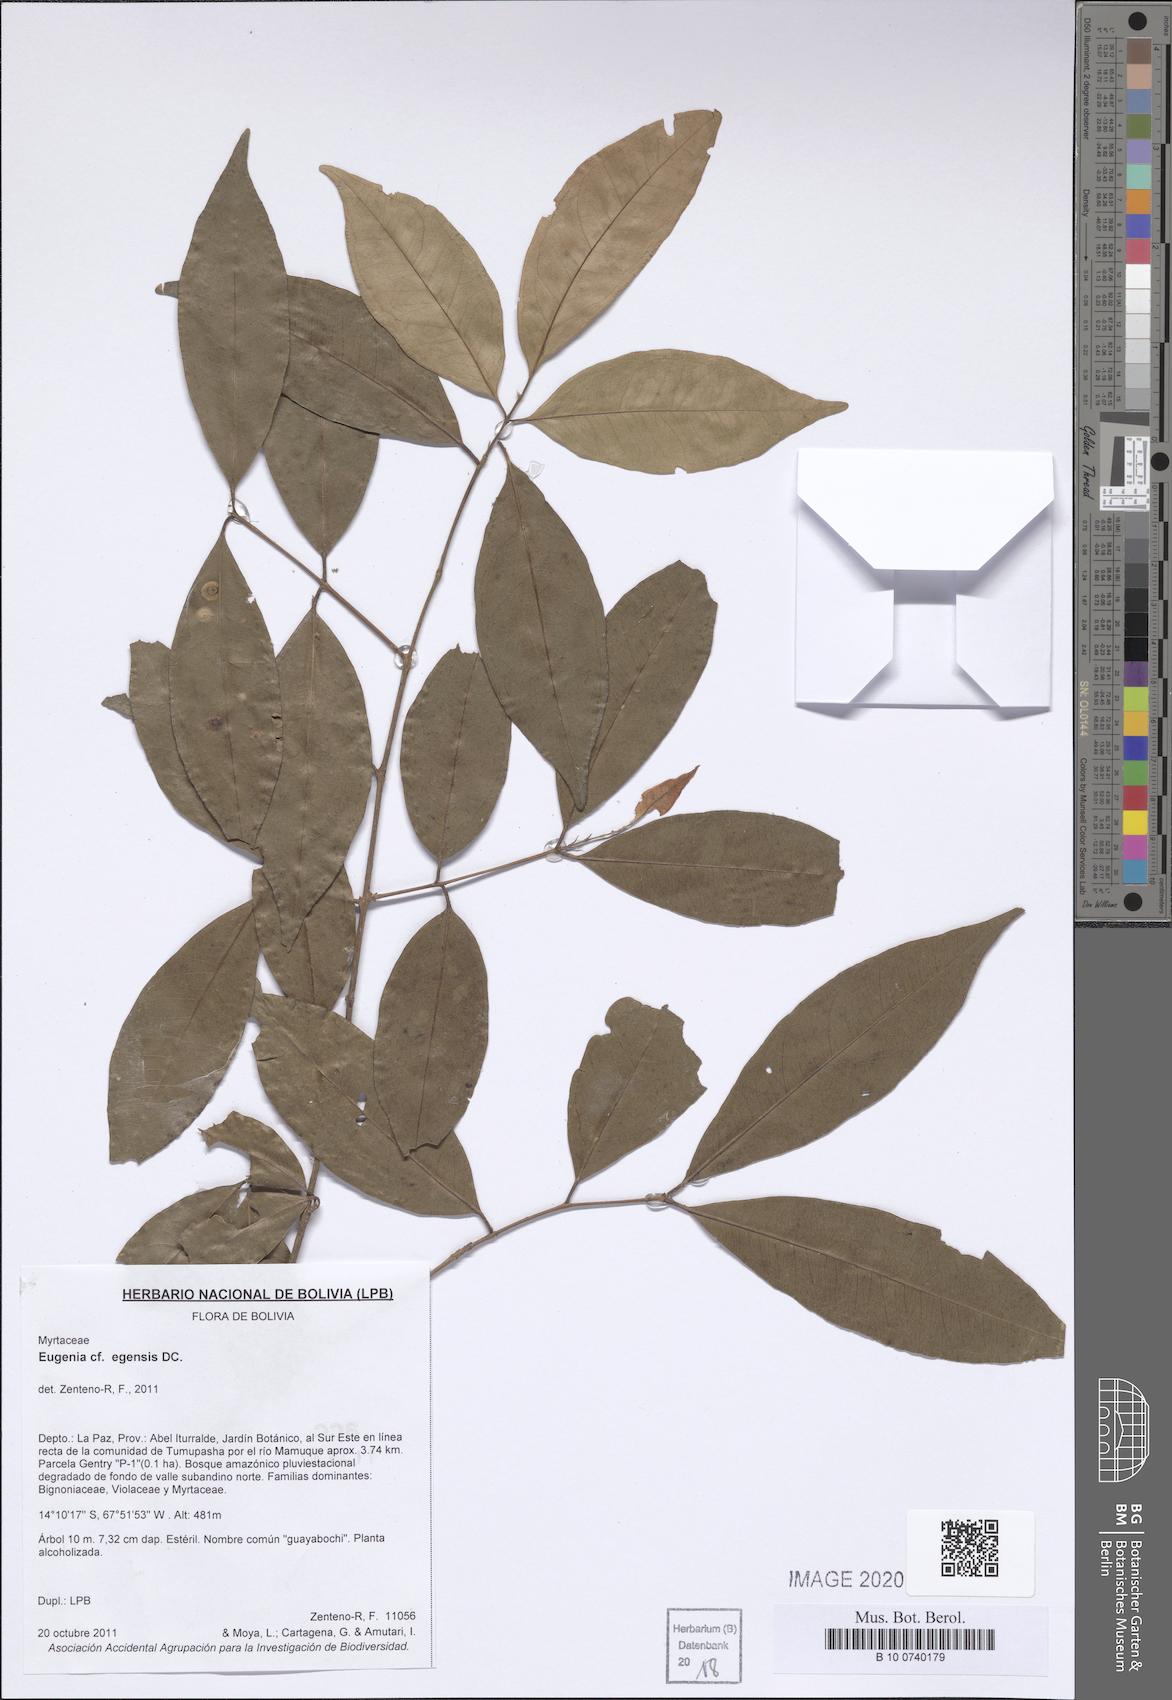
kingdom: Plantae
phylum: Tracheophyta
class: Magnoliopsida
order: Myrtales
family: Myrtaceae
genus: Eugenia
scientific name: Eugenia egensis
